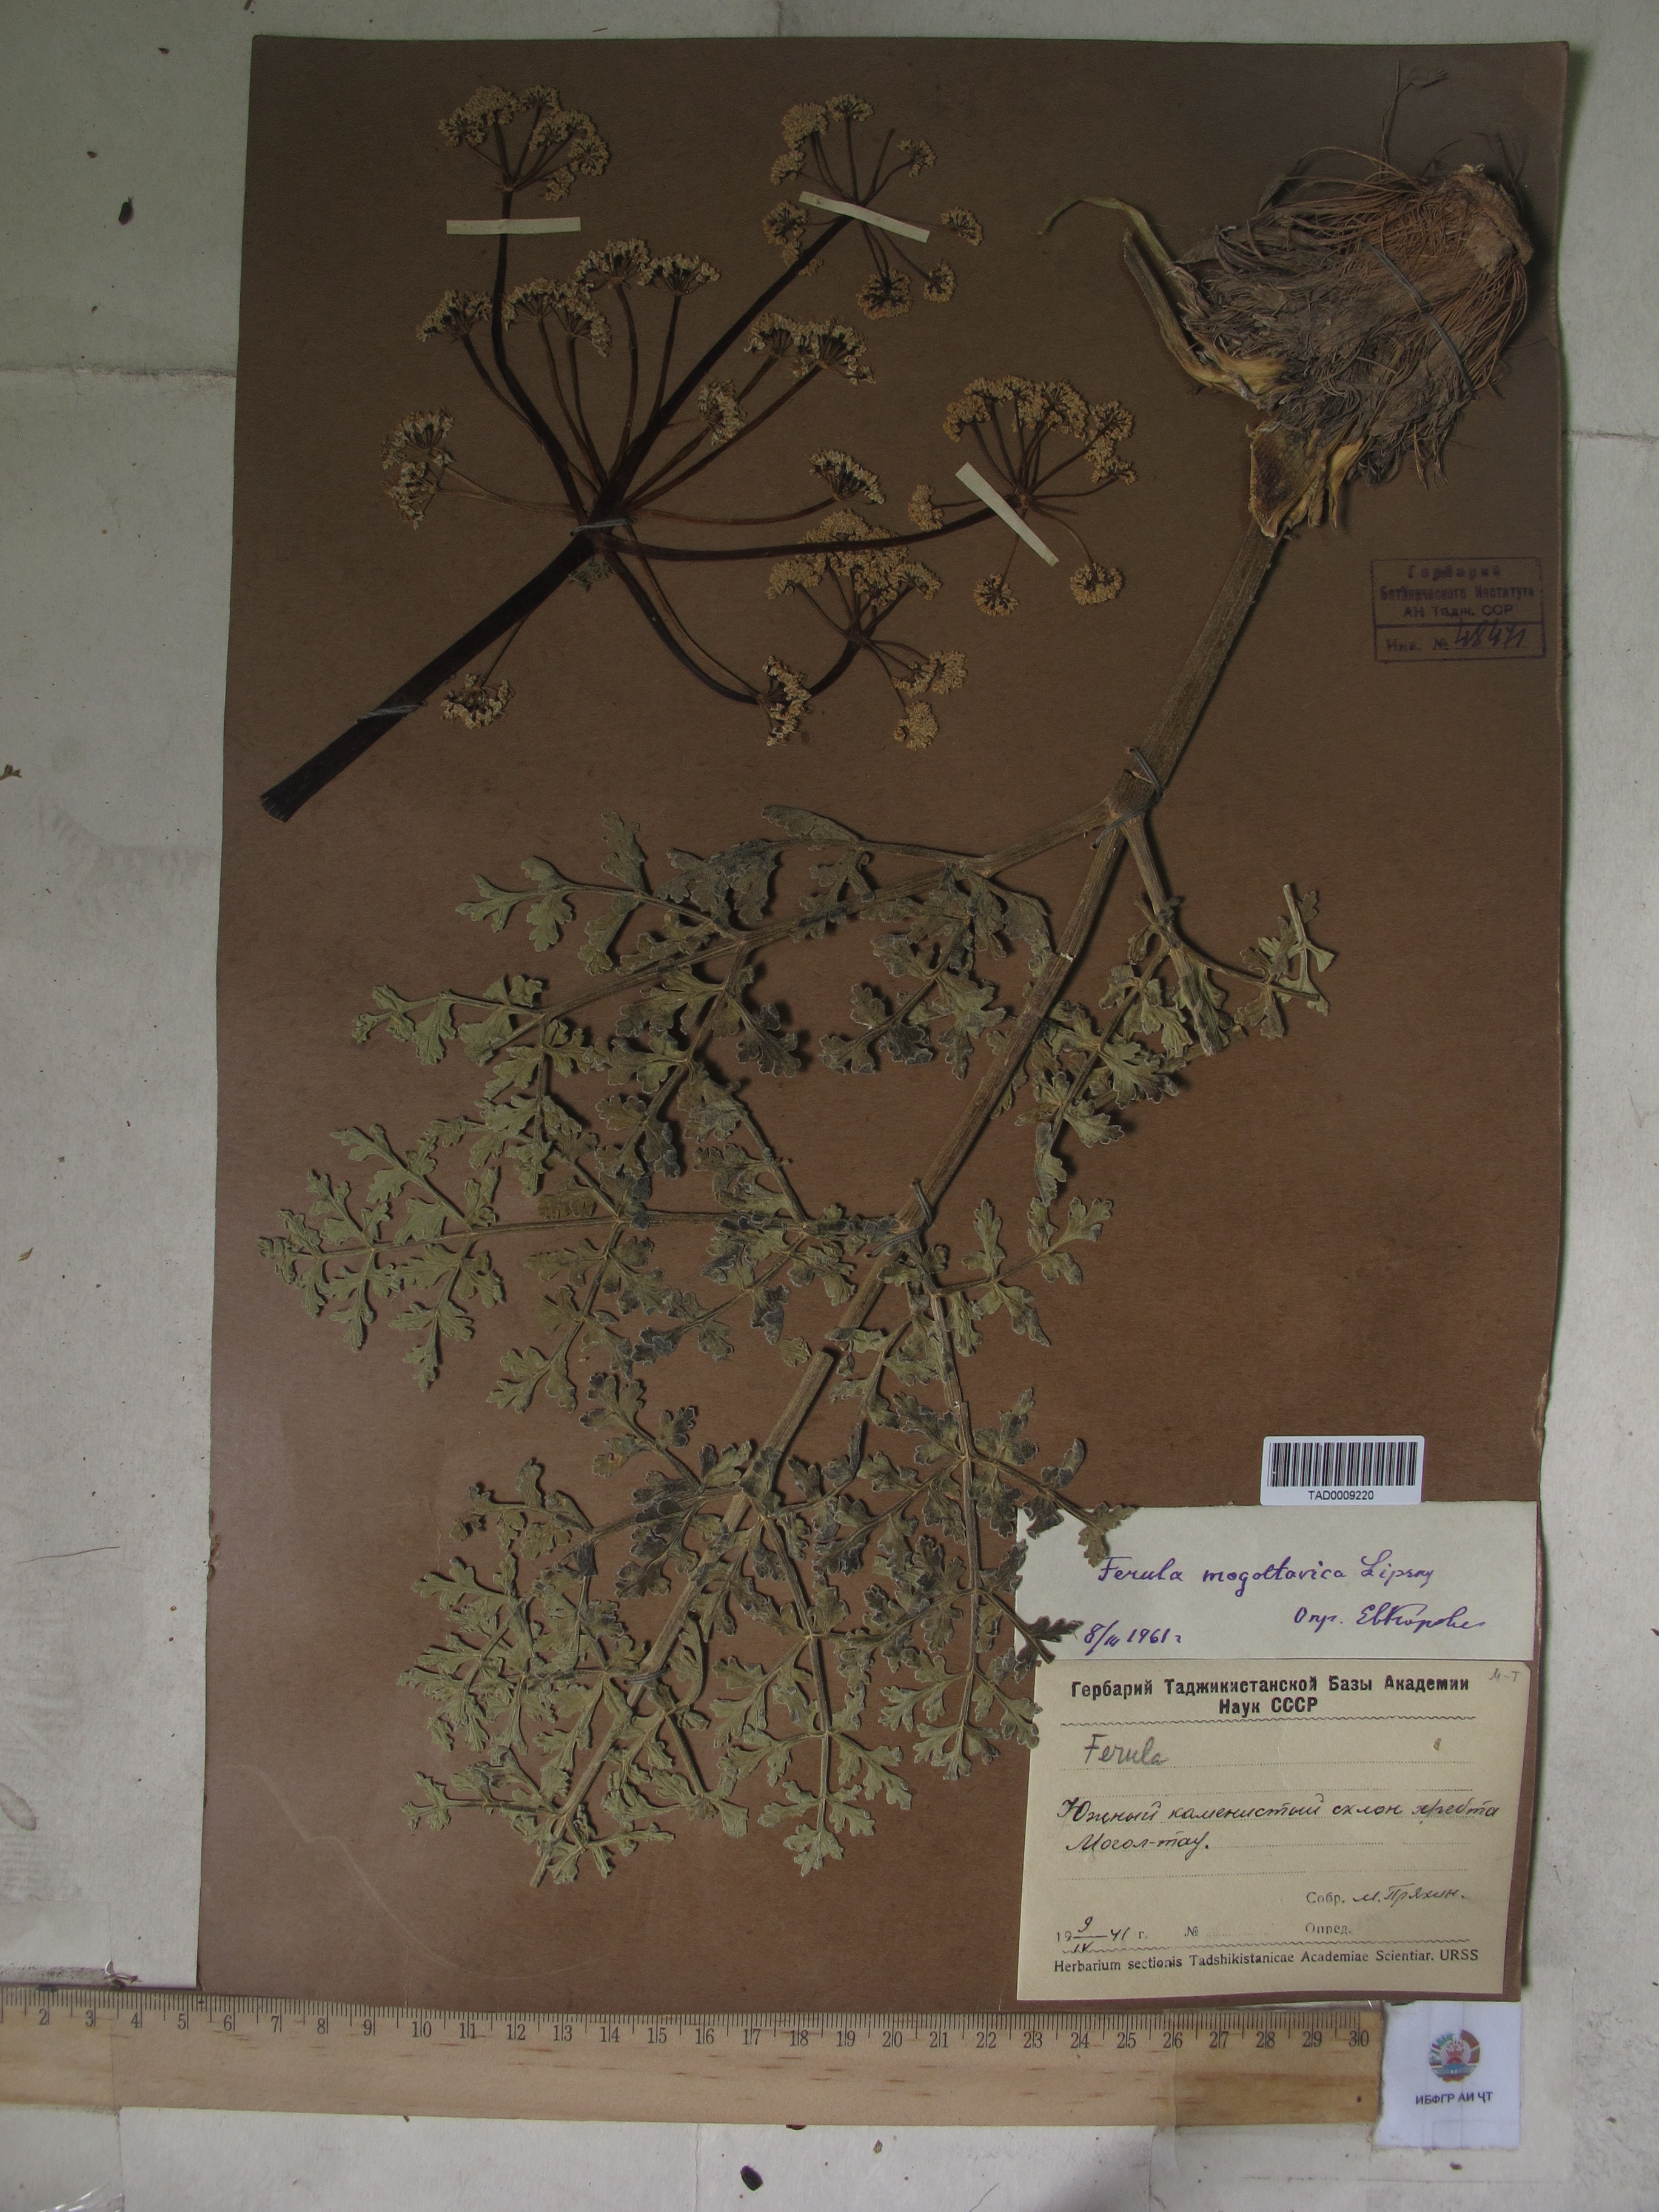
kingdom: Plantae
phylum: Tracheophyta
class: Magnoliopsida
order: Apiales
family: Apiaceae
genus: Ferula
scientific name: Ferula mogoltavica
